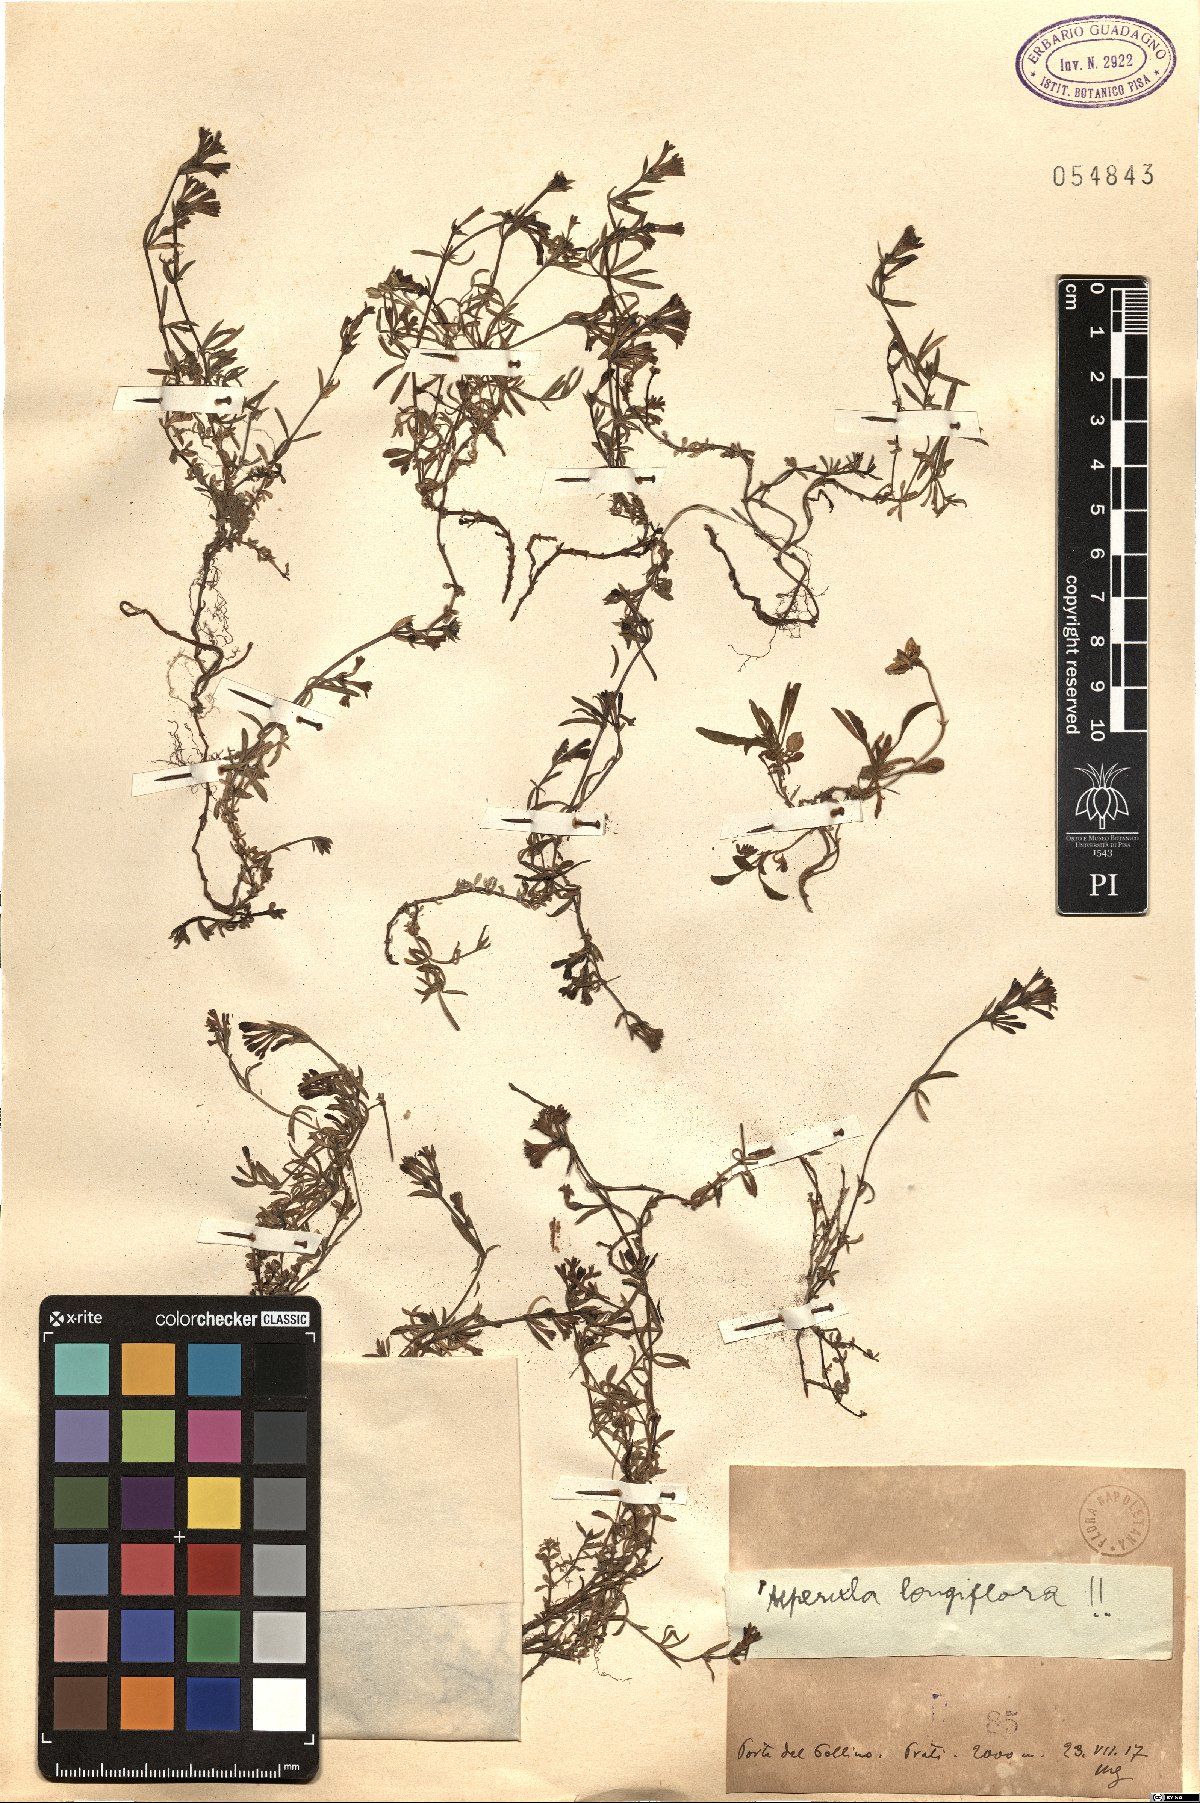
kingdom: Plantae
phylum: Tracheophyta
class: Magnoliopsida
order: Gentianales
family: Rubiaceae
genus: Cynanchica
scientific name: Cynanchica aristata
